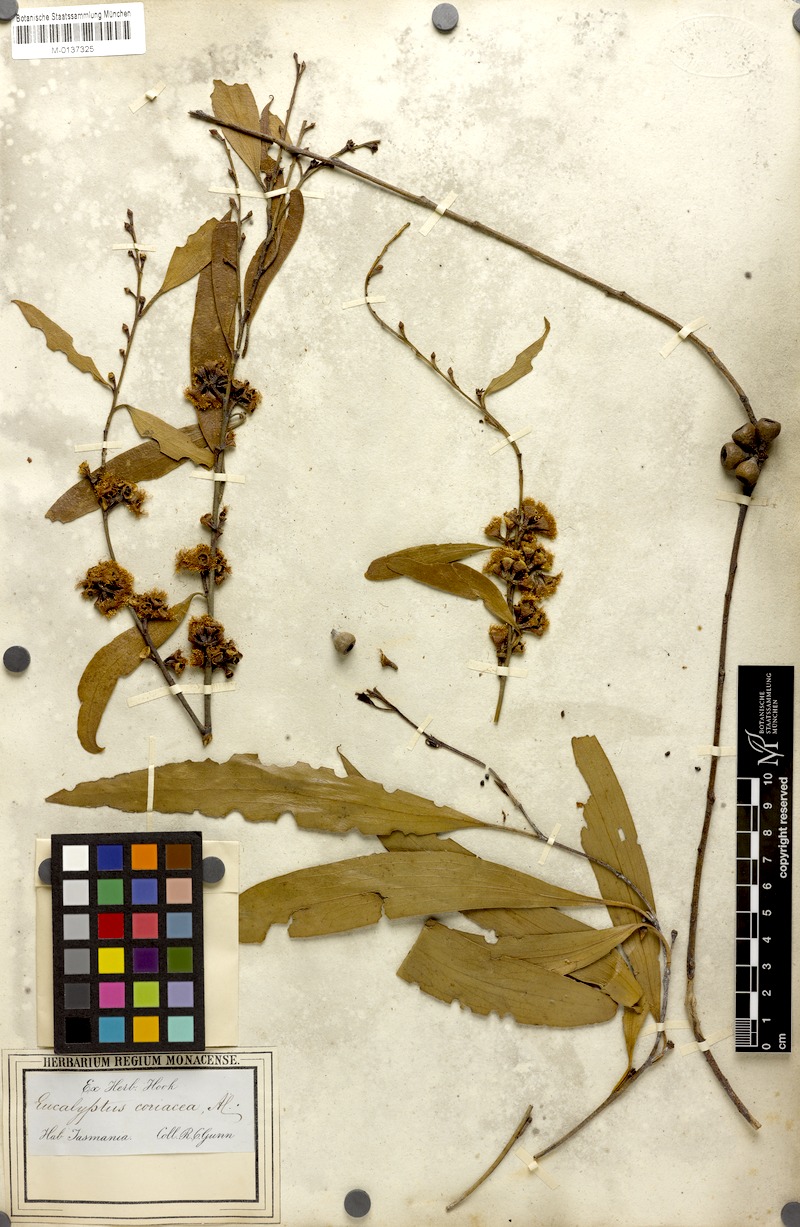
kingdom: Plantae
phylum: Tracheophyta
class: Magnoliopsida
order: Myrtales
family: Myrtaceae
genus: Eucalyptus
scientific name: Eucalyptus pauciflora
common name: Snow gum
